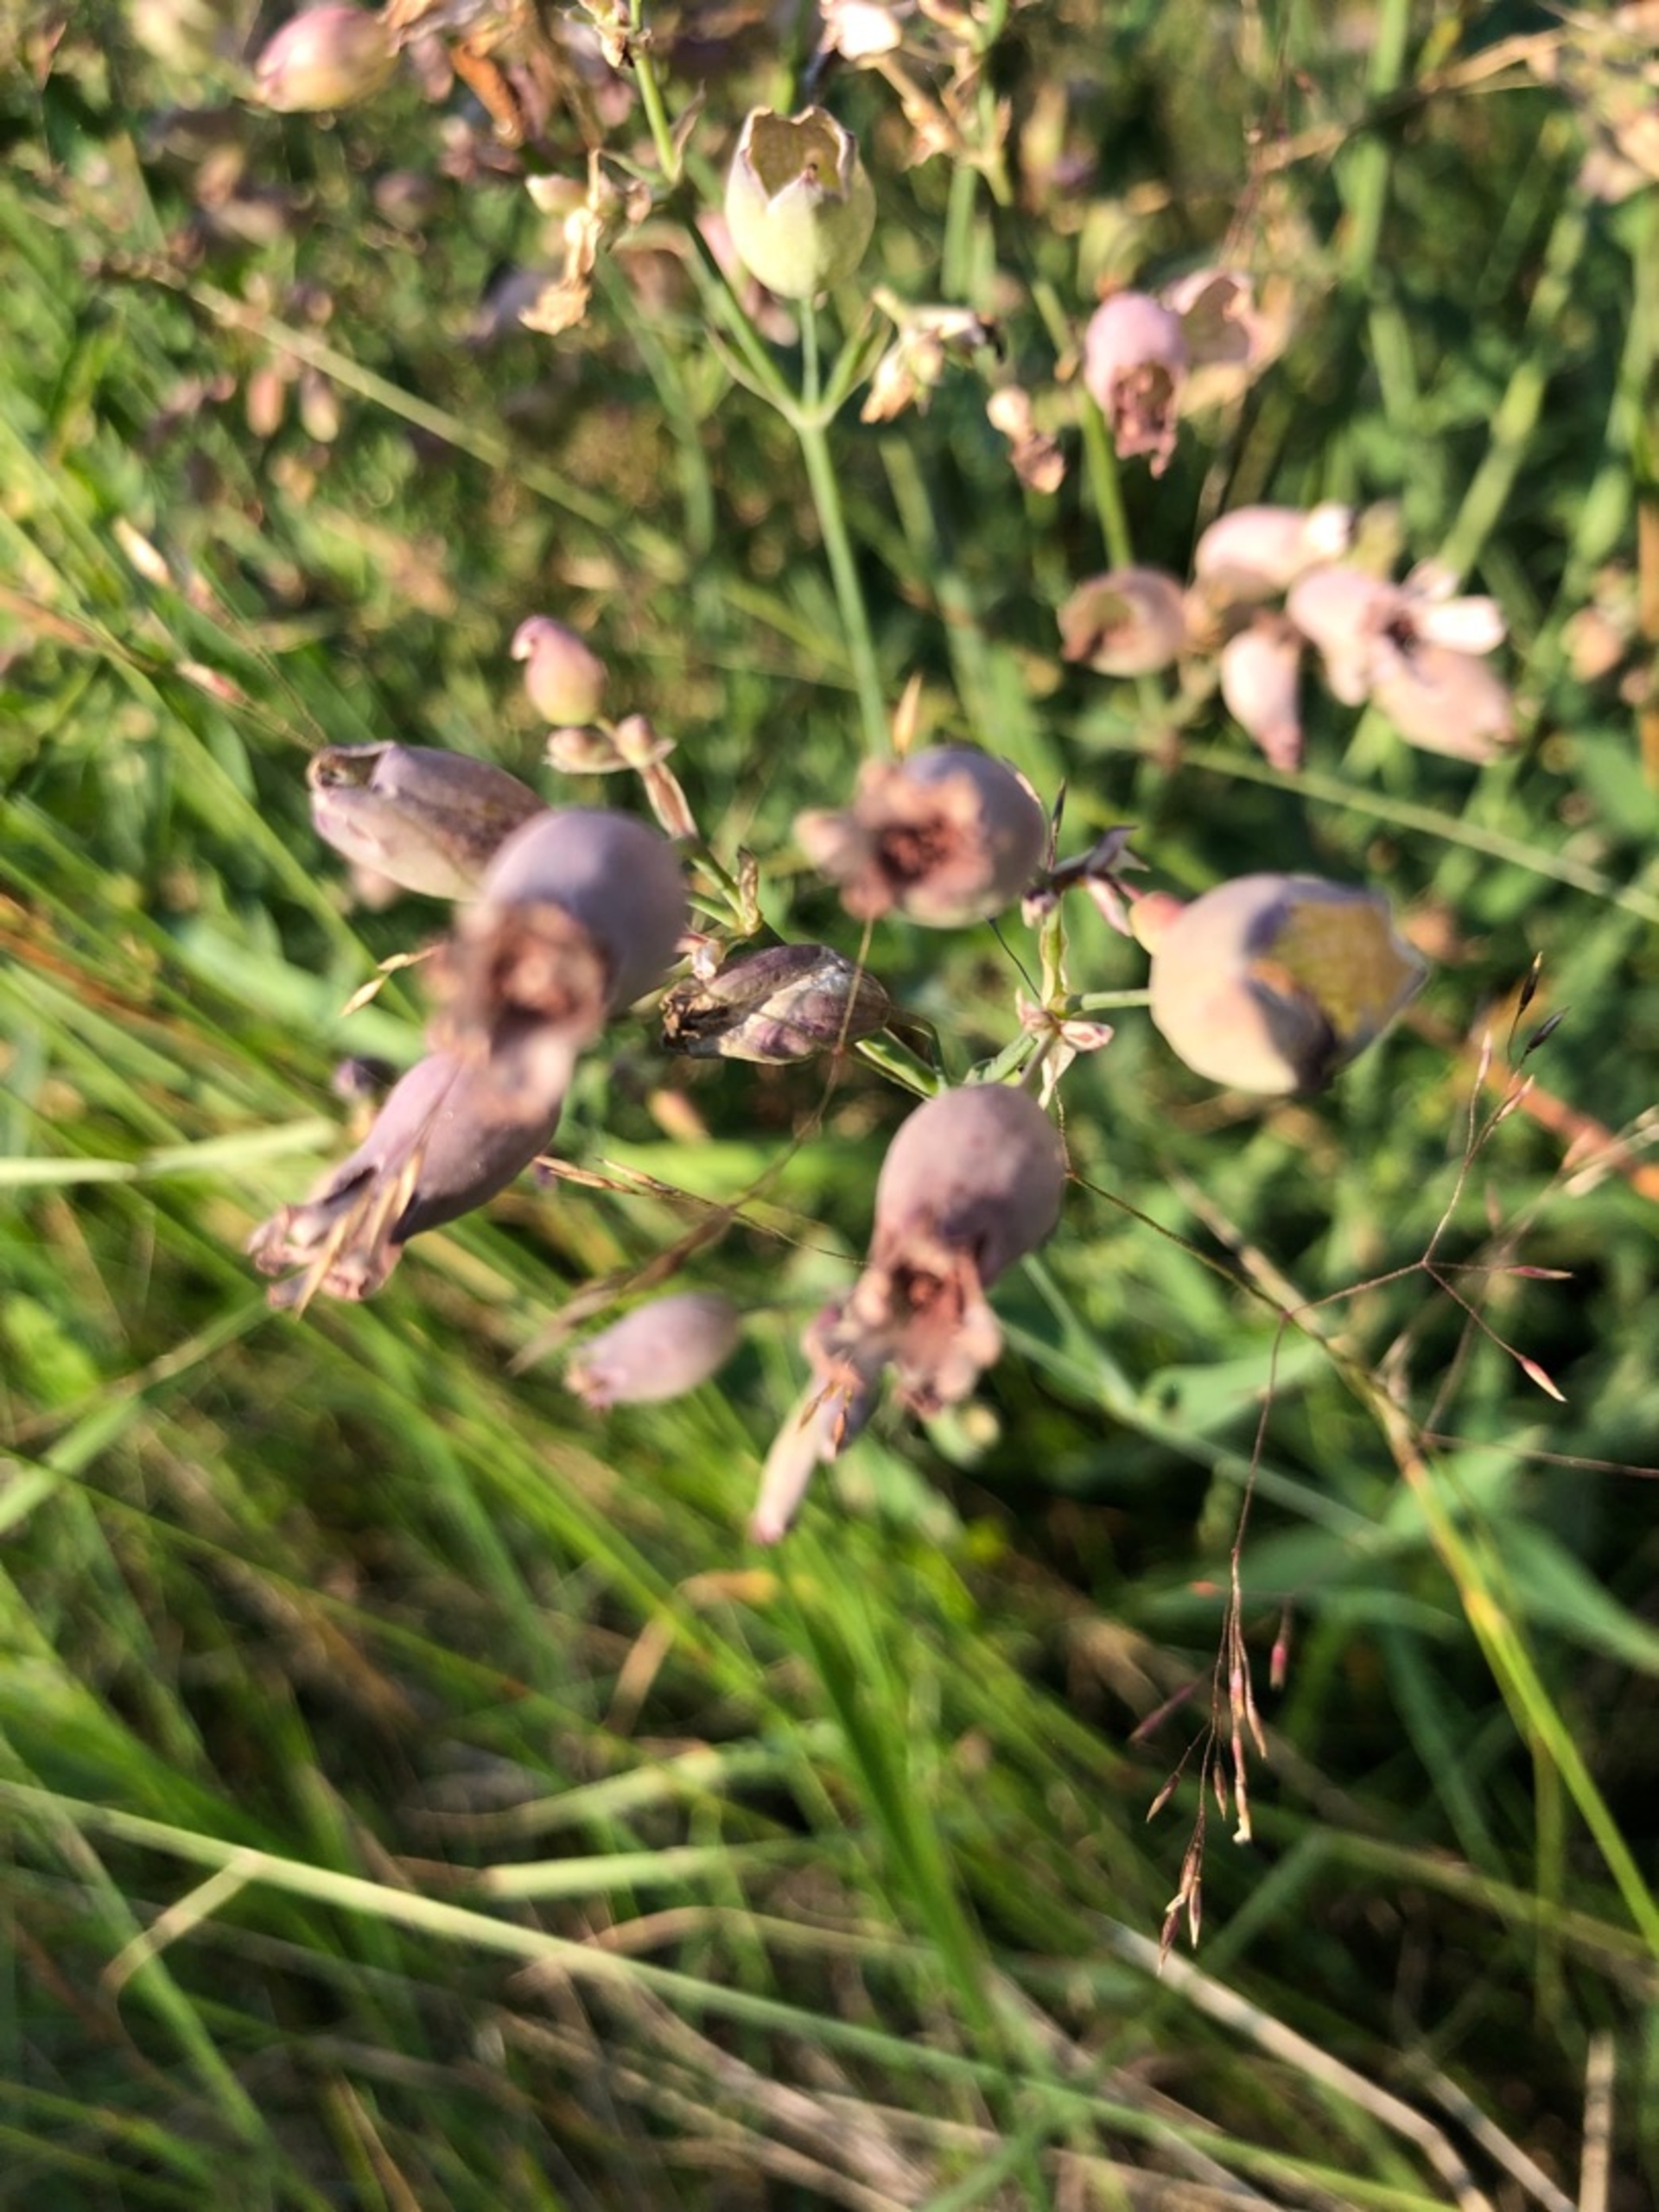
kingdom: Plantae
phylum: Tracheophyta
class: Magnoliopsida
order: Caryophyllales
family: Caryophyllaceae
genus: Silene
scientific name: Silene vulgaris
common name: Blæresmælde
